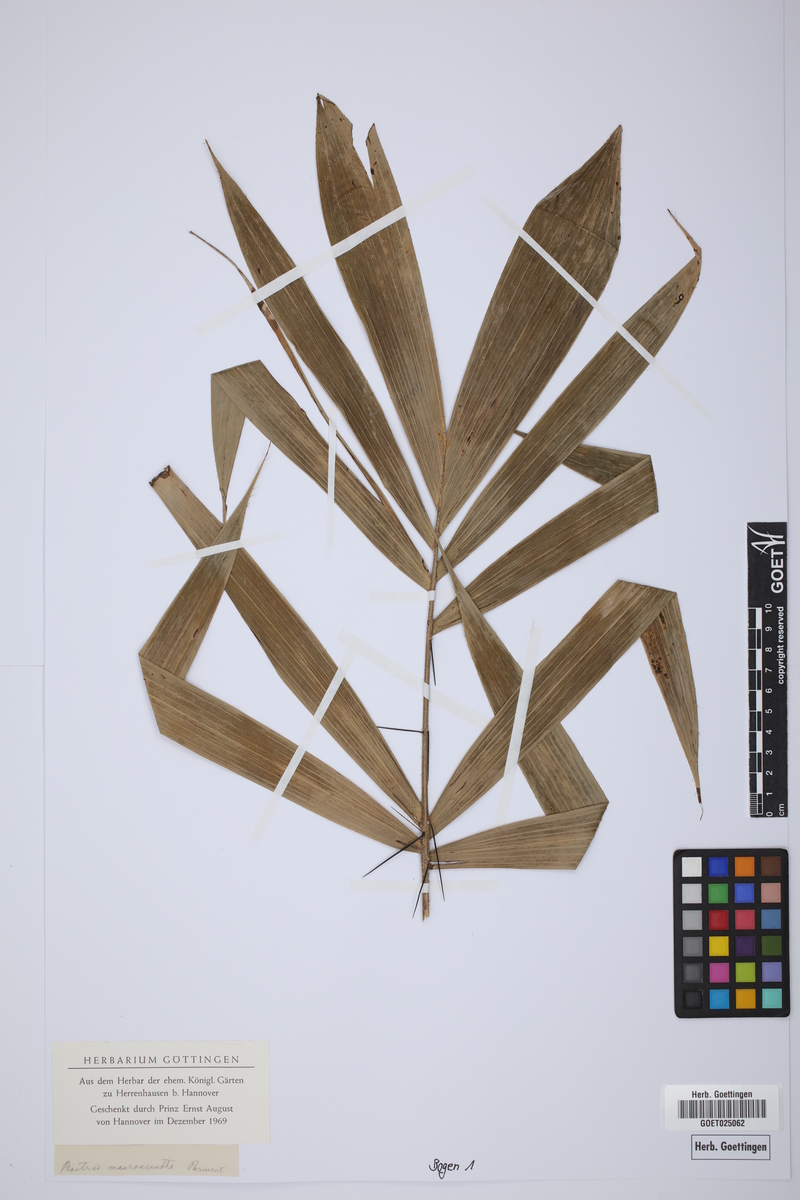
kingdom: Plantae
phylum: Tracheophyta
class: Liliopsida
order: Arecales
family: Arecaceae
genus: Bactris
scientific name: Bactris macroacantha
